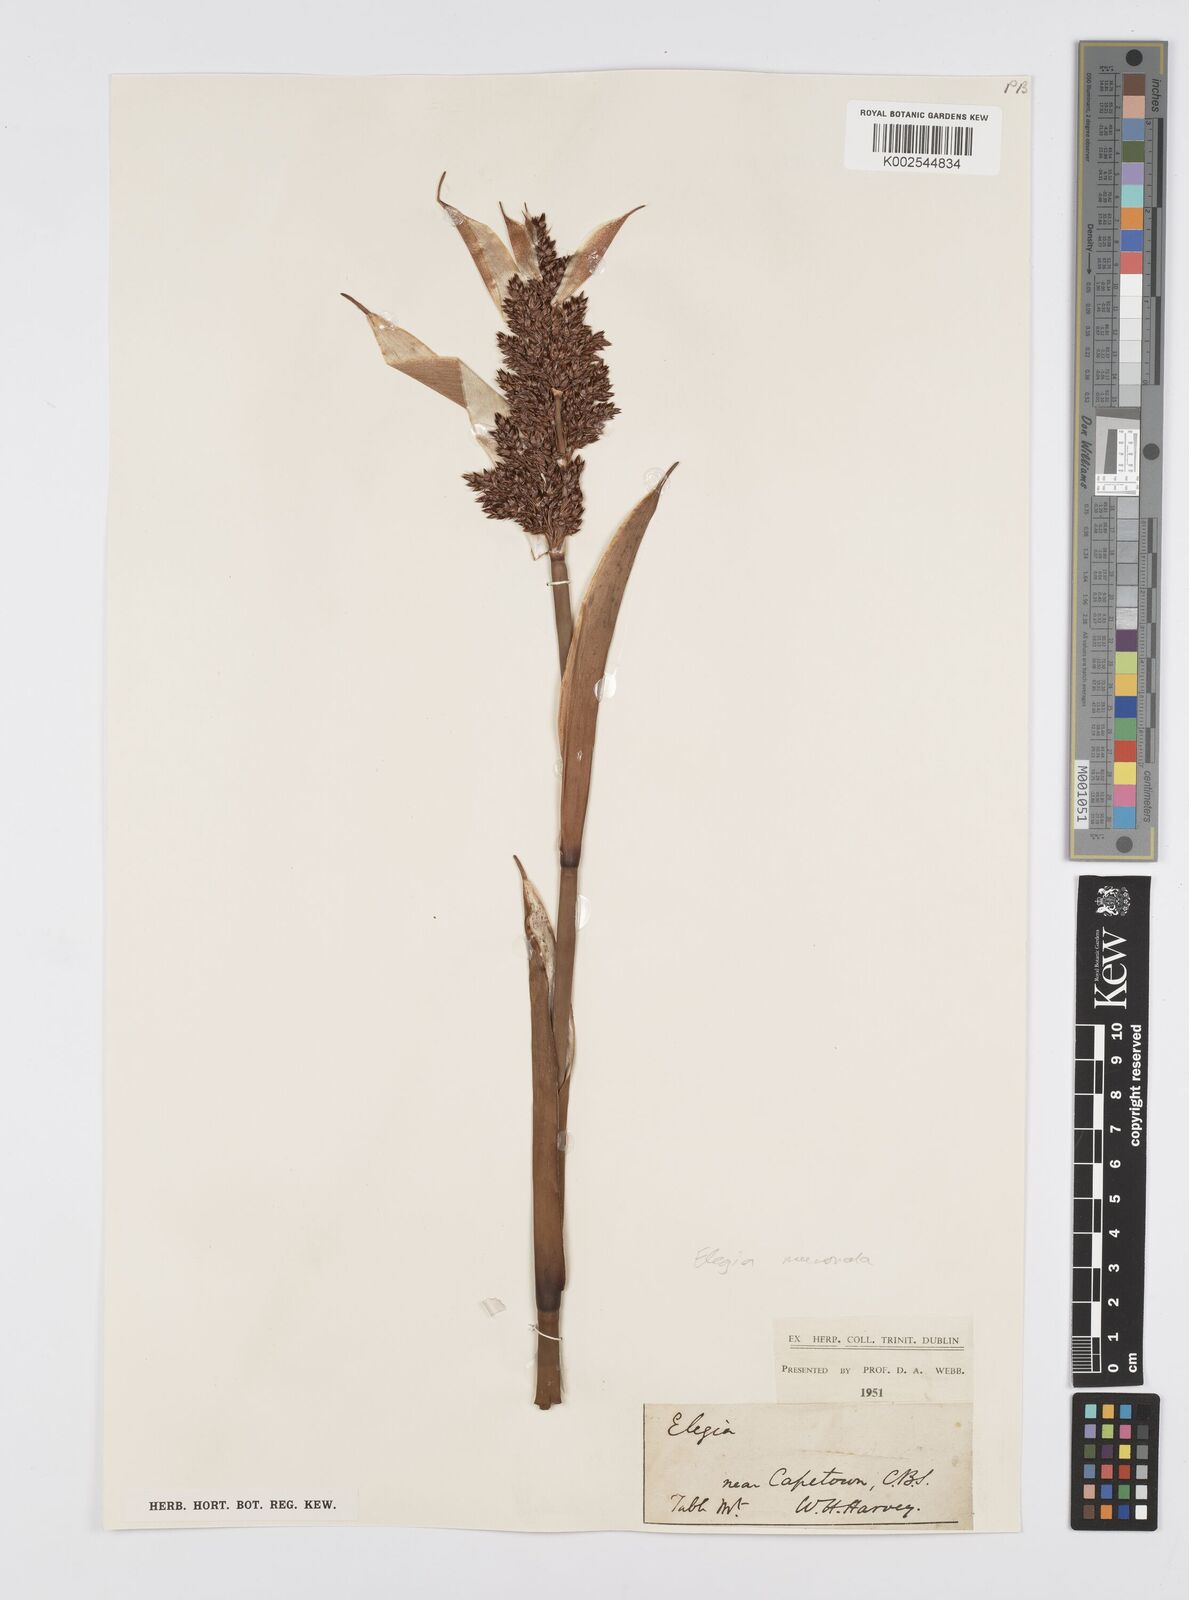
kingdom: Plantae
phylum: Tracheophyta
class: Liliopsida
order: Poales
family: Restionaceae
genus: Elegia
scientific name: Elegia mucronata
